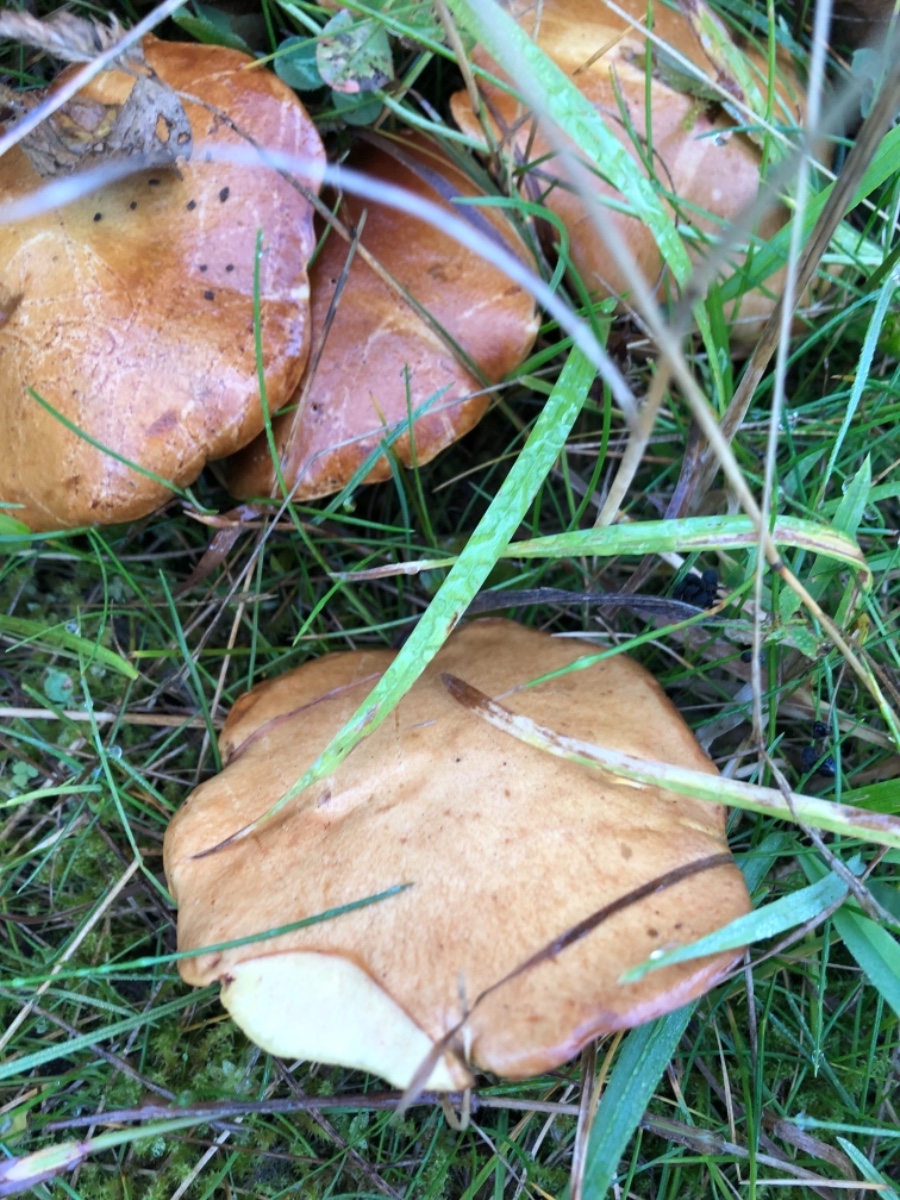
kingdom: Fungi
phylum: Basidiomycota
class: Agaricomycetes
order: Boletales
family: Suillaceae
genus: Suillus
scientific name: Suillus granulatus
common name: kornet slimrørhat
